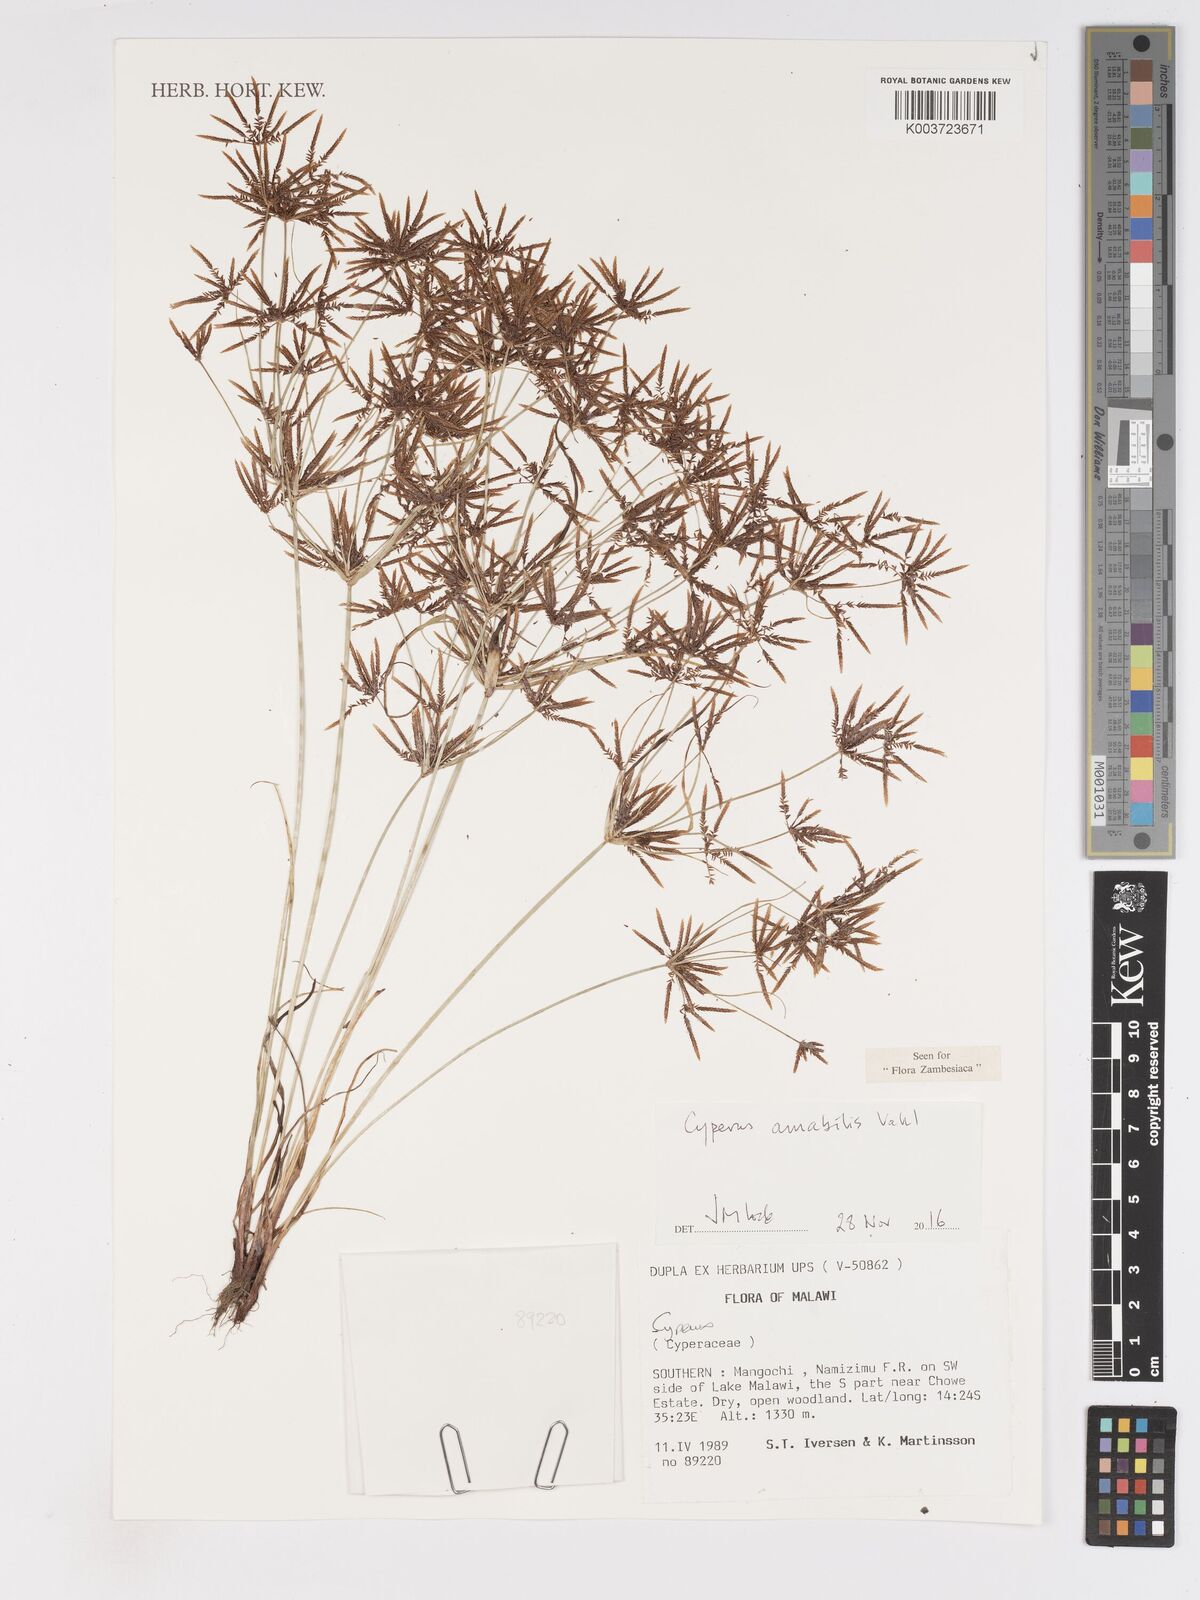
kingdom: Plantae
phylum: Tracheophyta
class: Liliopsida
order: Poales
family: Cyperaceae
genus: Cyperus
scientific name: Cyperus amabilis
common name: Foothill flat sedge
